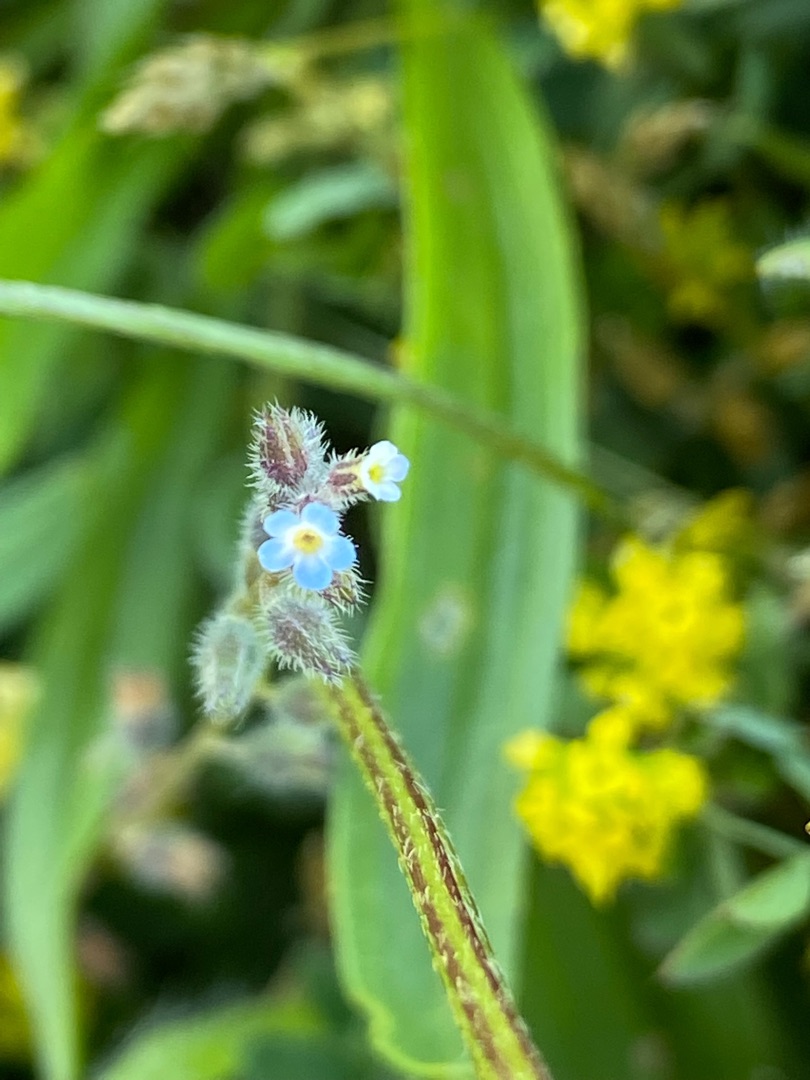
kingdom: Plantae
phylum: Tracheophyta
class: Magnoliopsida
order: Boraginales
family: Boraginaceae
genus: Myosotis
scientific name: Myosotis ramosissima
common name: Bakke-forglemmigej
